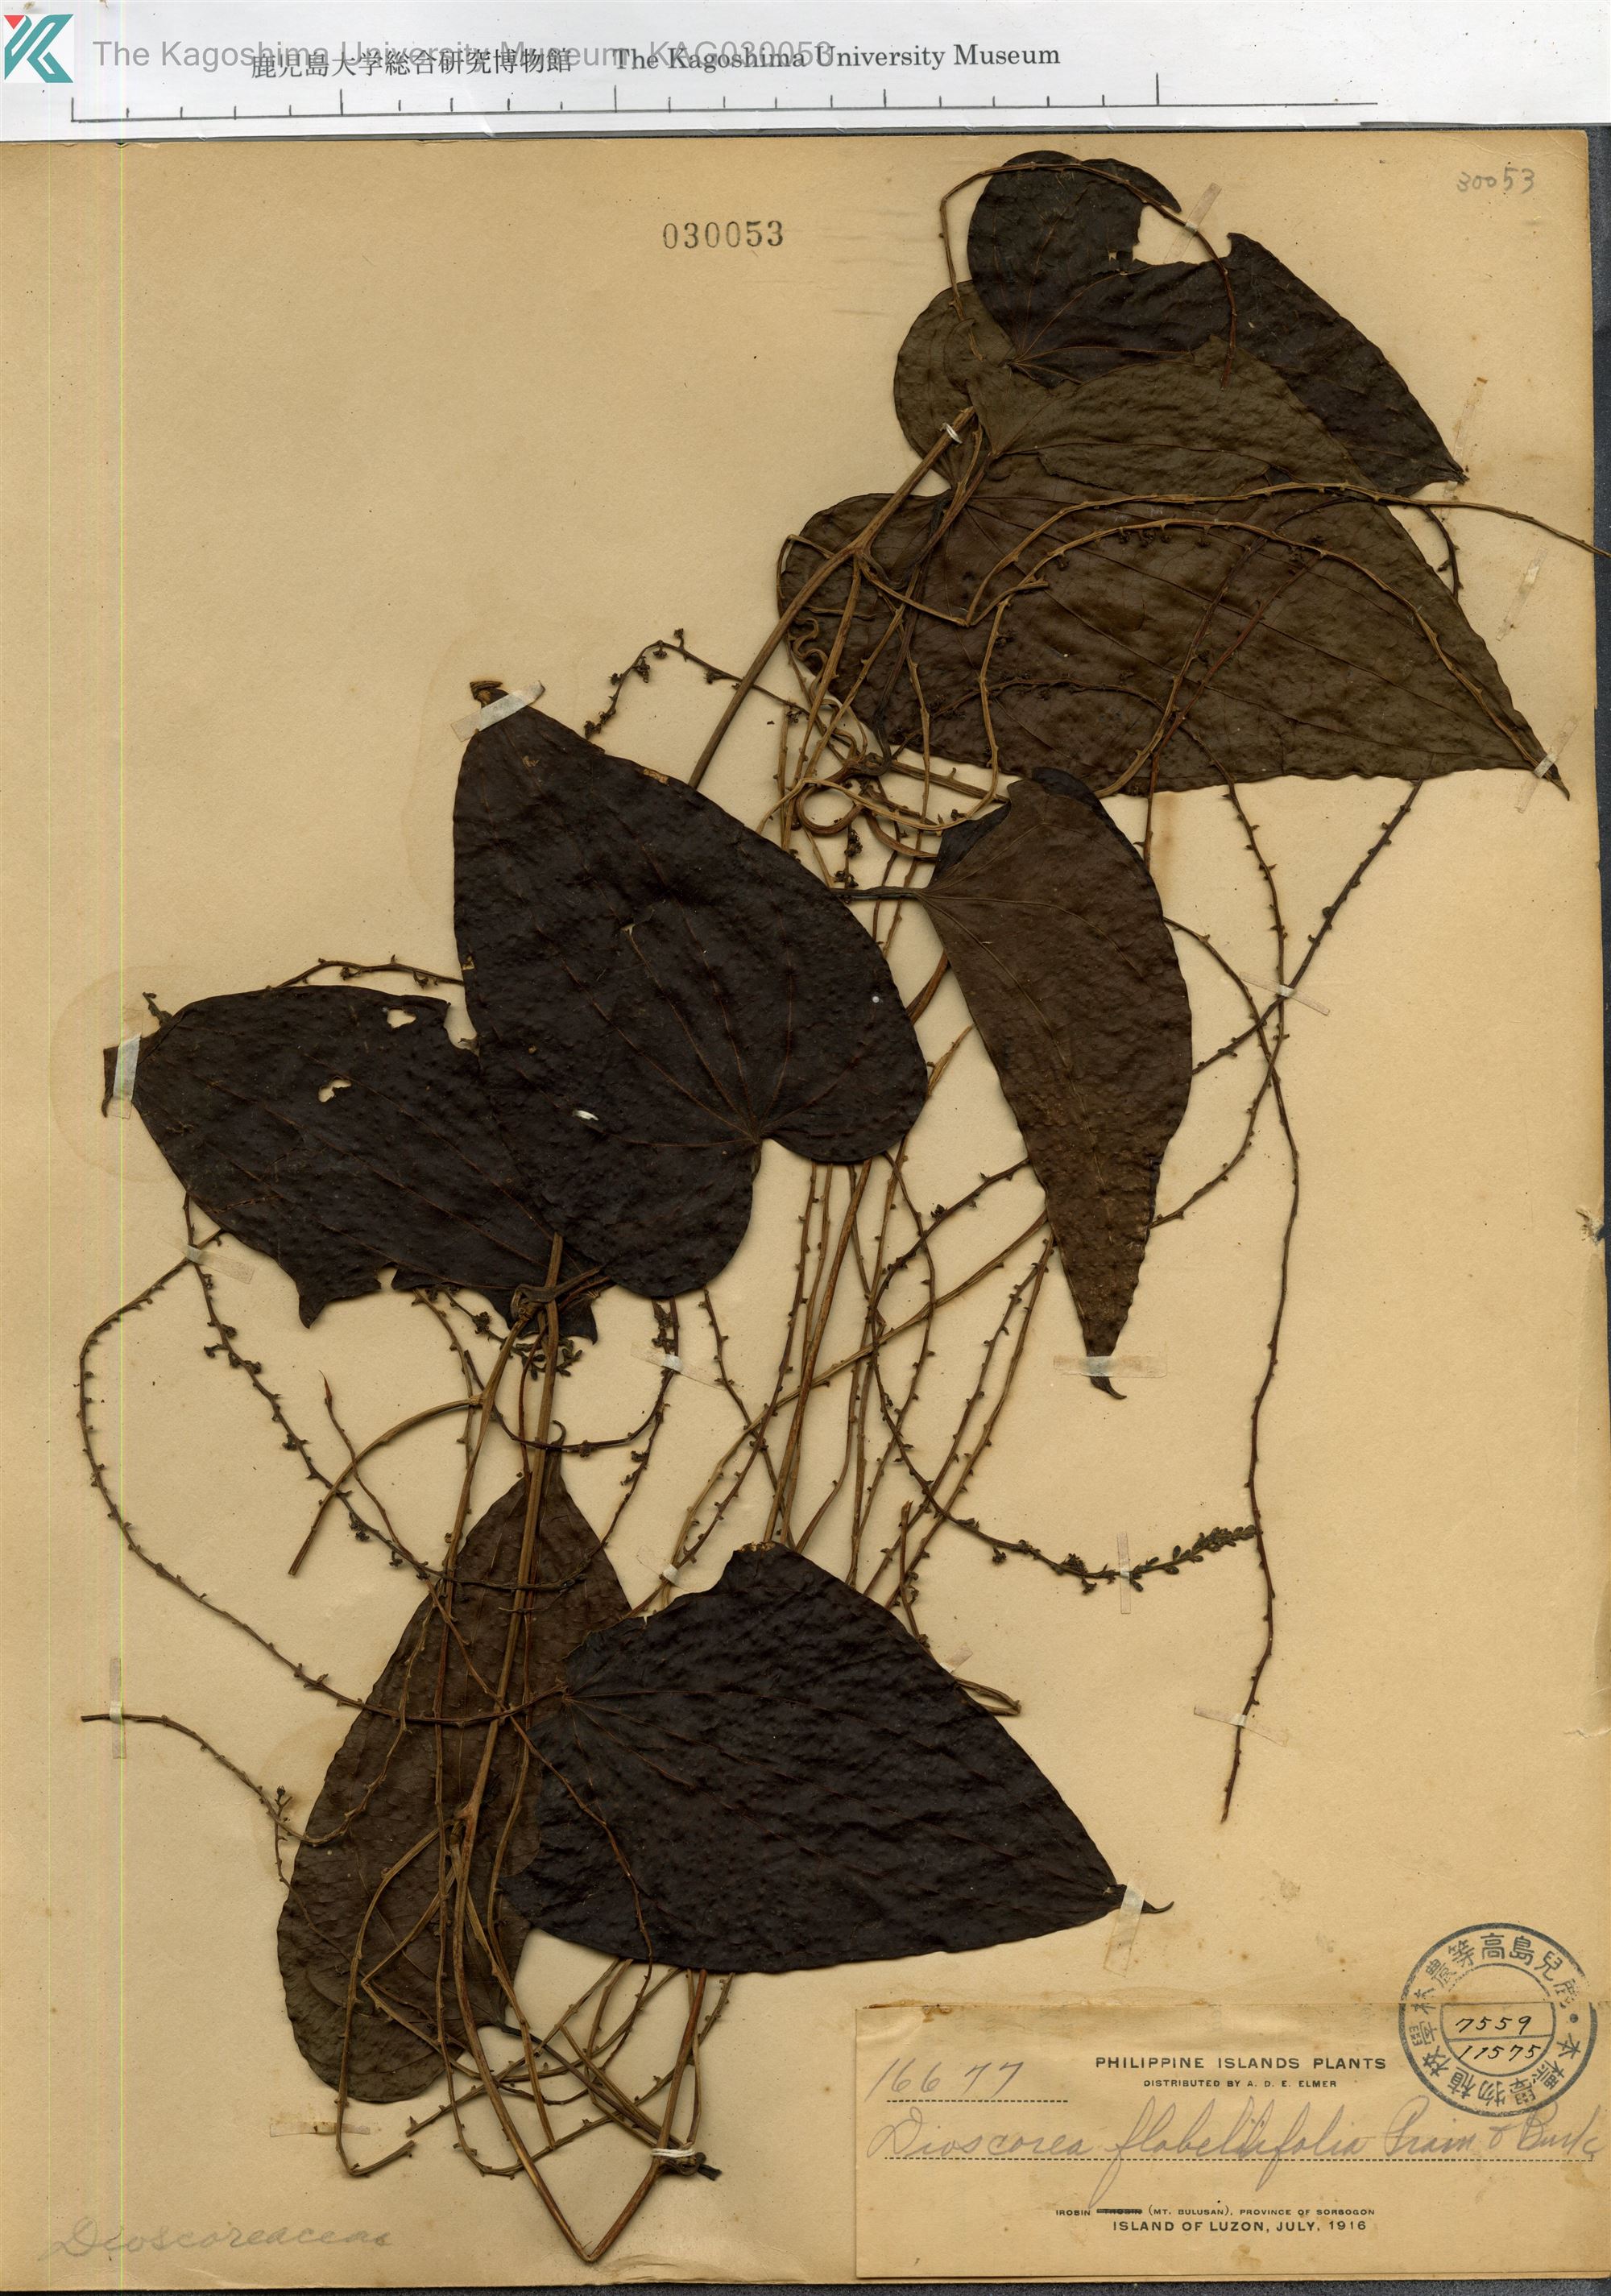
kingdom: Plantae
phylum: Tracheophyta
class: Liliopsida
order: Dioscoreales
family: Dioscoreaceae
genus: Dioscorea
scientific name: Dioscorea flabellifolia
